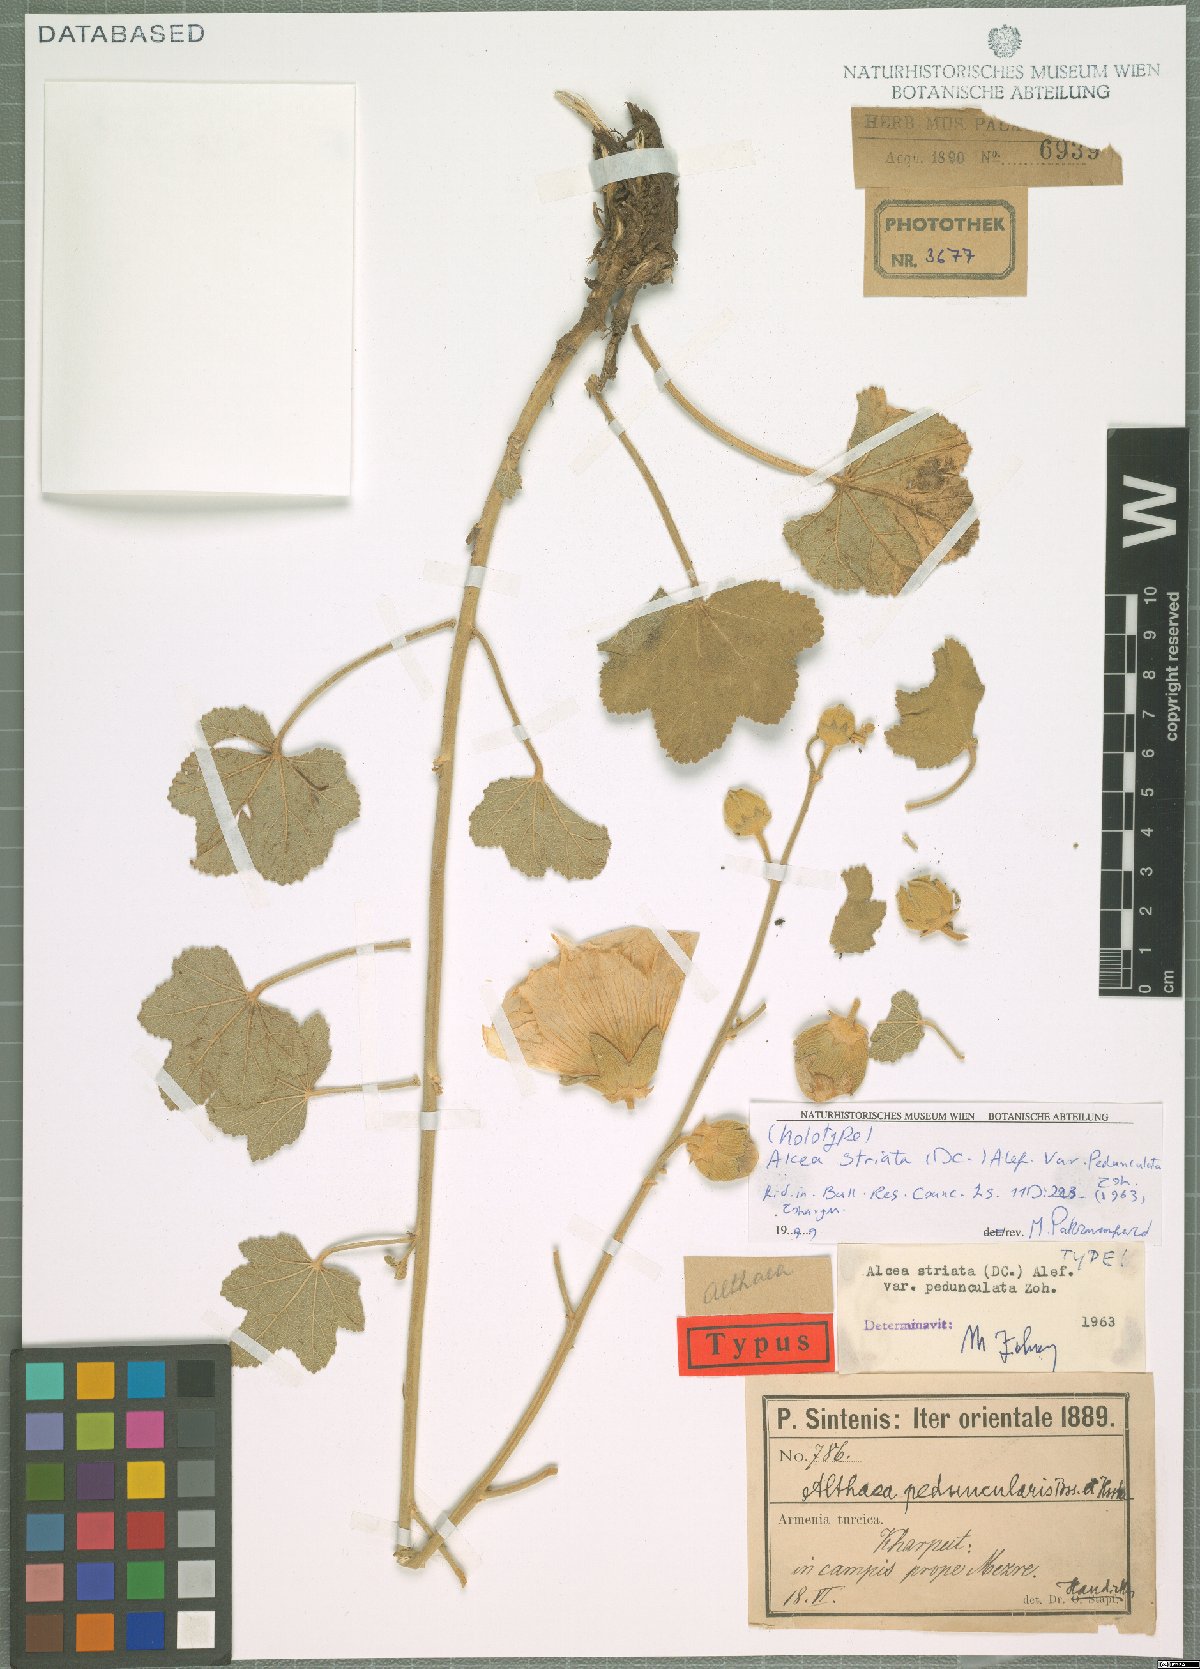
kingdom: Plantae
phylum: Tracheophyta
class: Magnoliopsida
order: Malvales
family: Malvaceae
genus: Alcea
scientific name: Alcea striata
